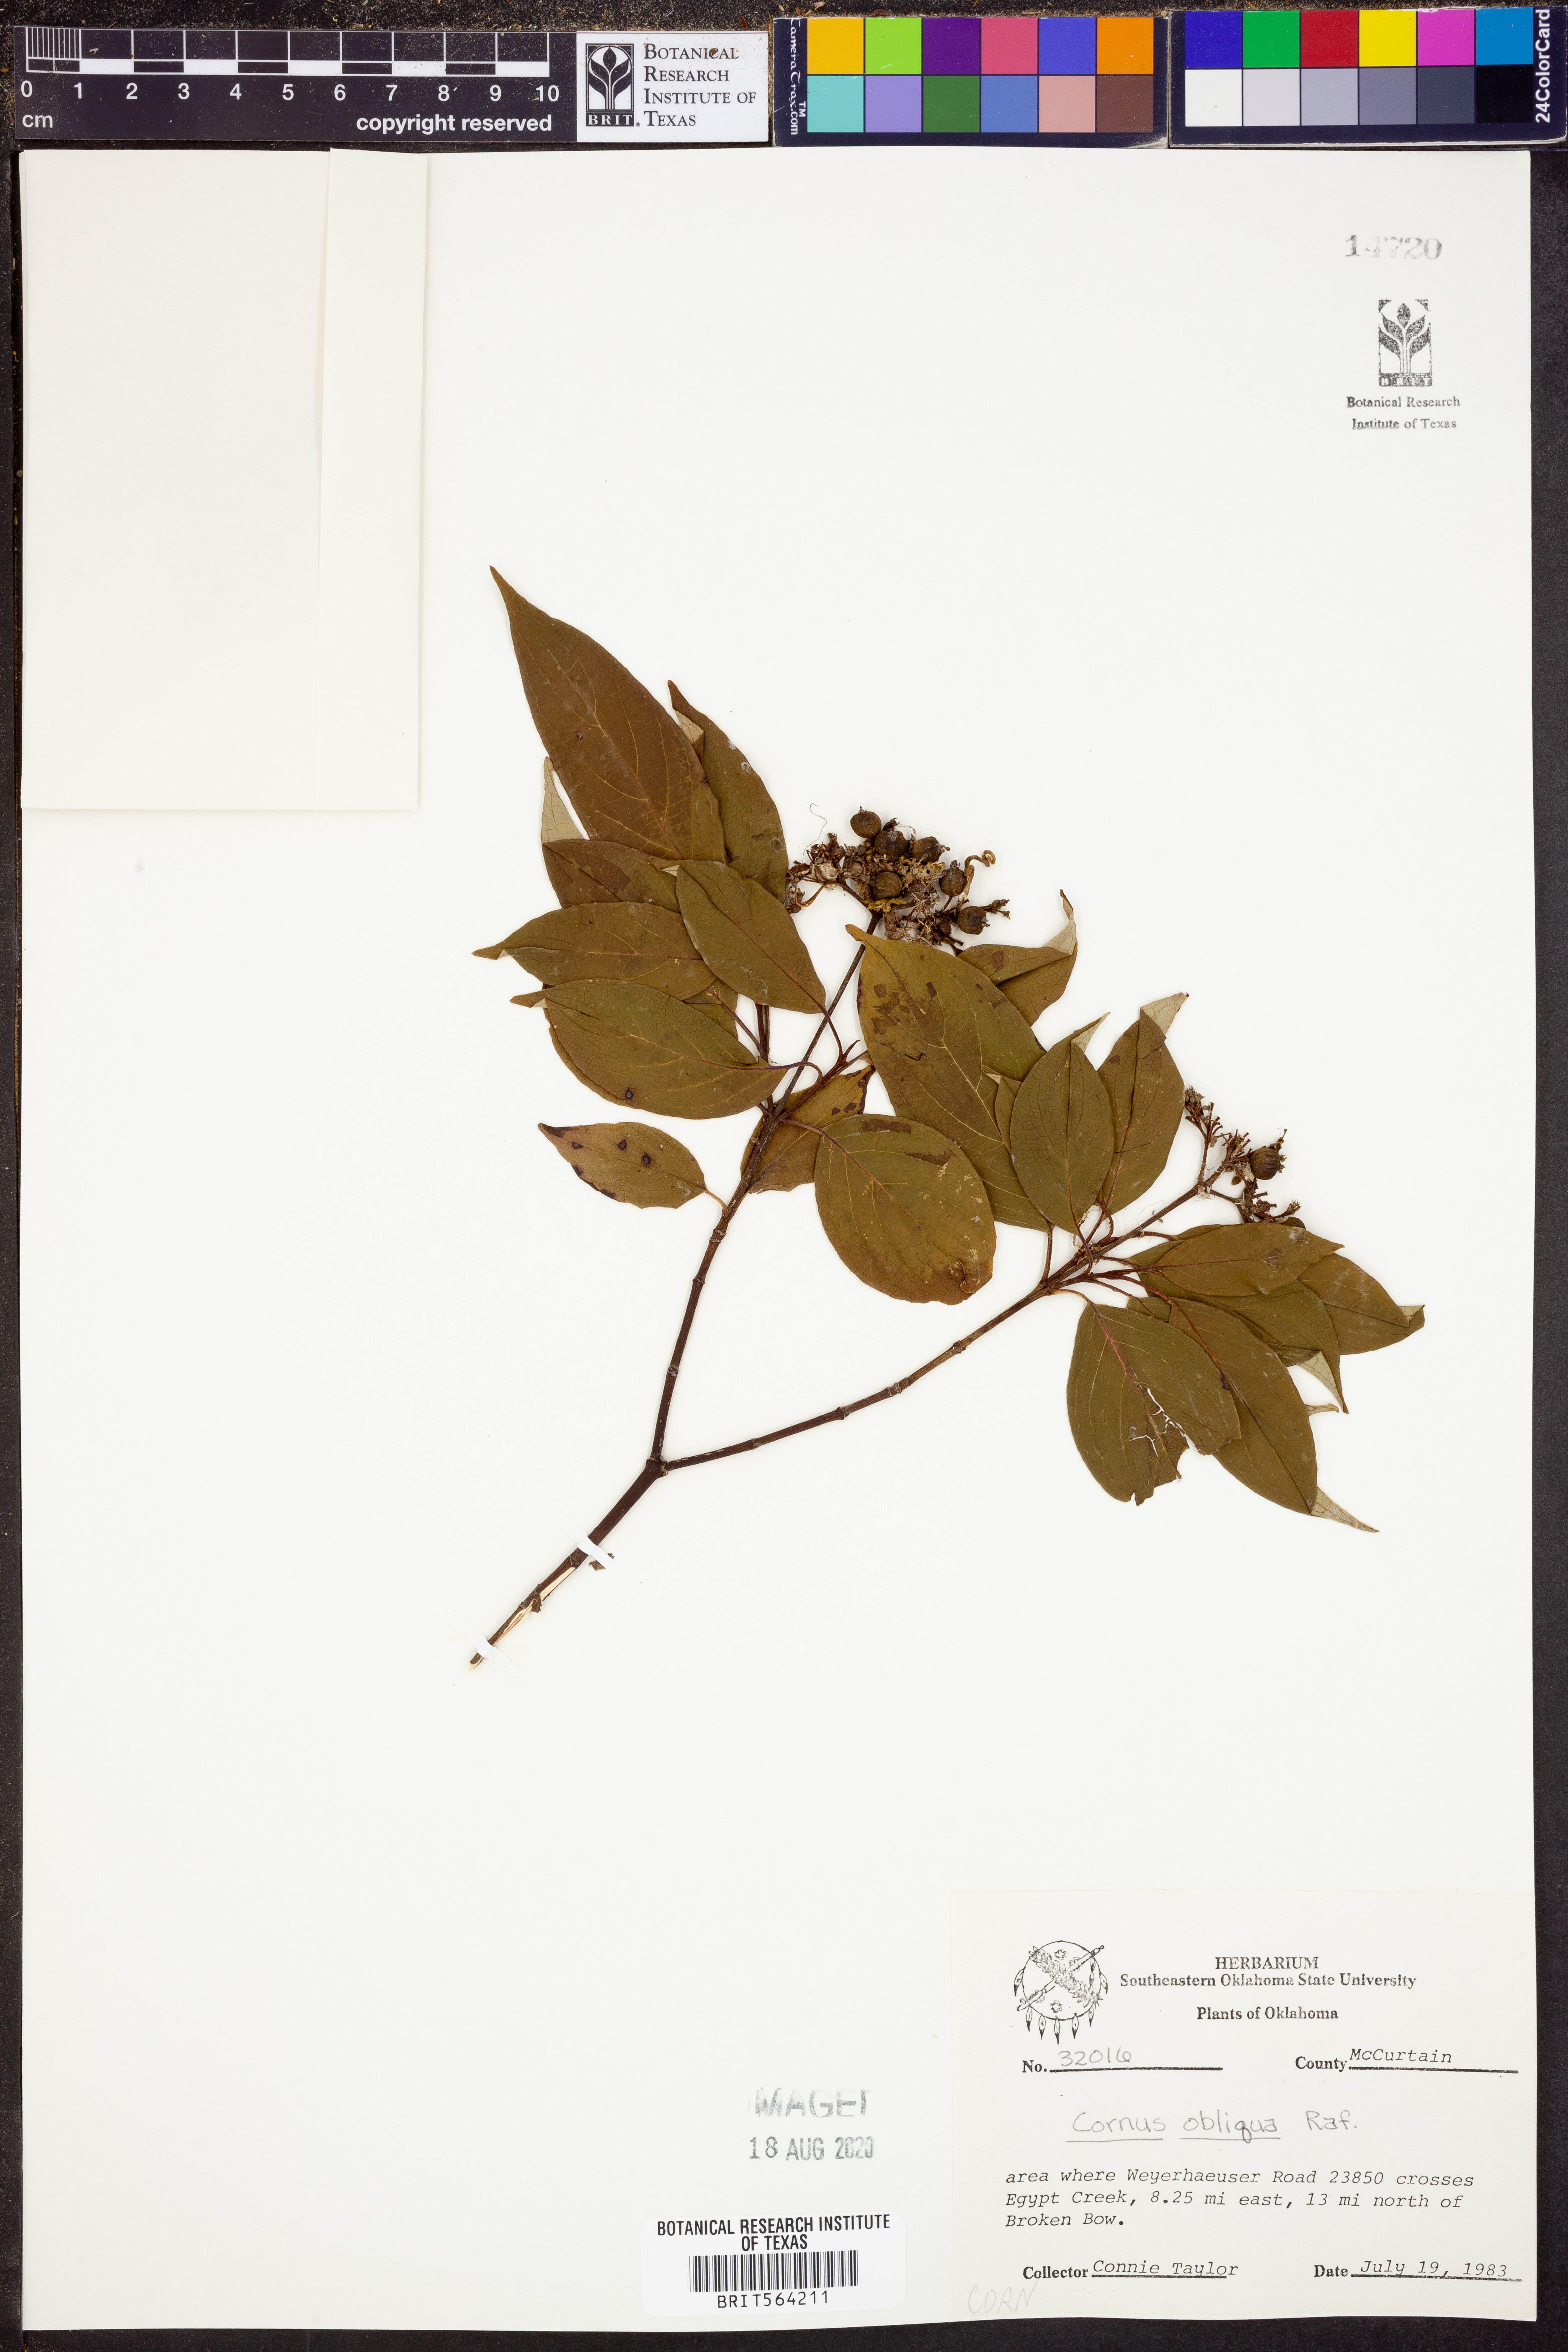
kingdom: Plantae
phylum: Tracheophyta
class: Magnoliopsida
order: Cornales
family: Cornaceae
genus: Cornus
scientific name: Cornus obliqua
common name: Pale dogwood
